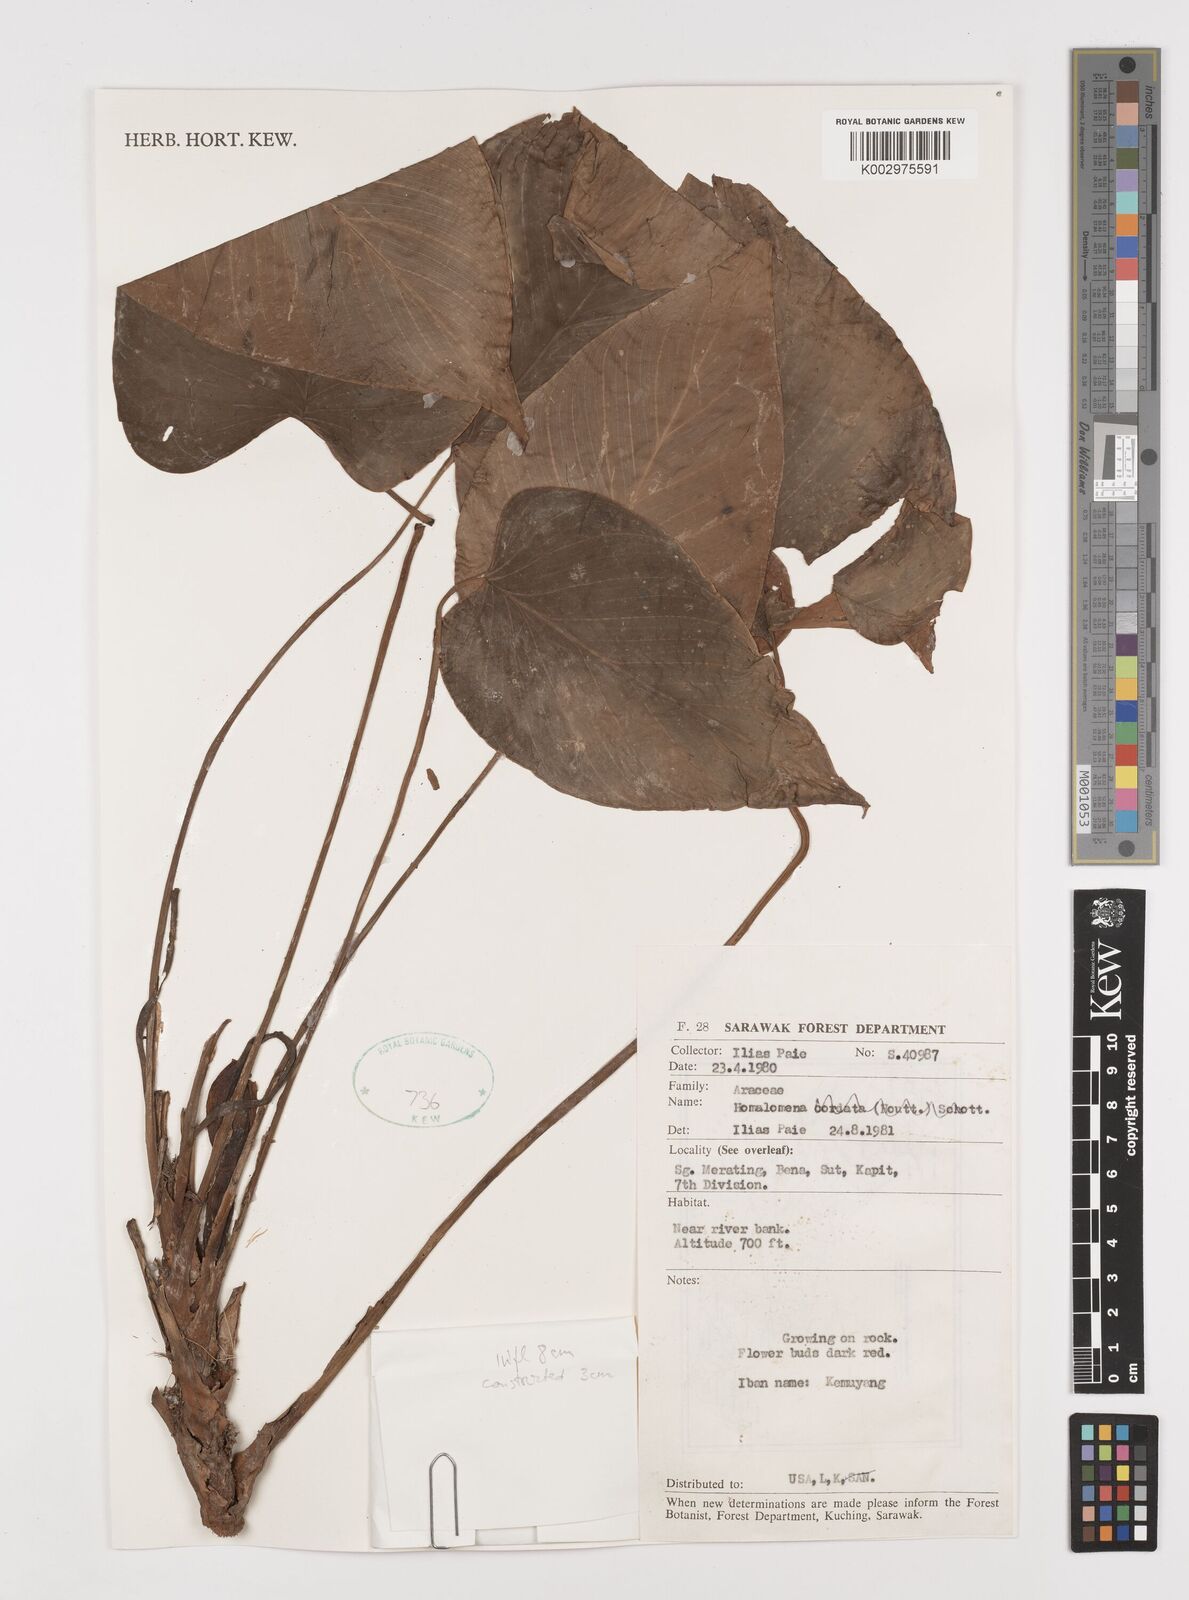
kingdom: Plantae
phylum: Tracheophyta
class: Liliopsida
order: Alismatales
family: Araceae
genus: Homalomena
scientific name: Homalomena
